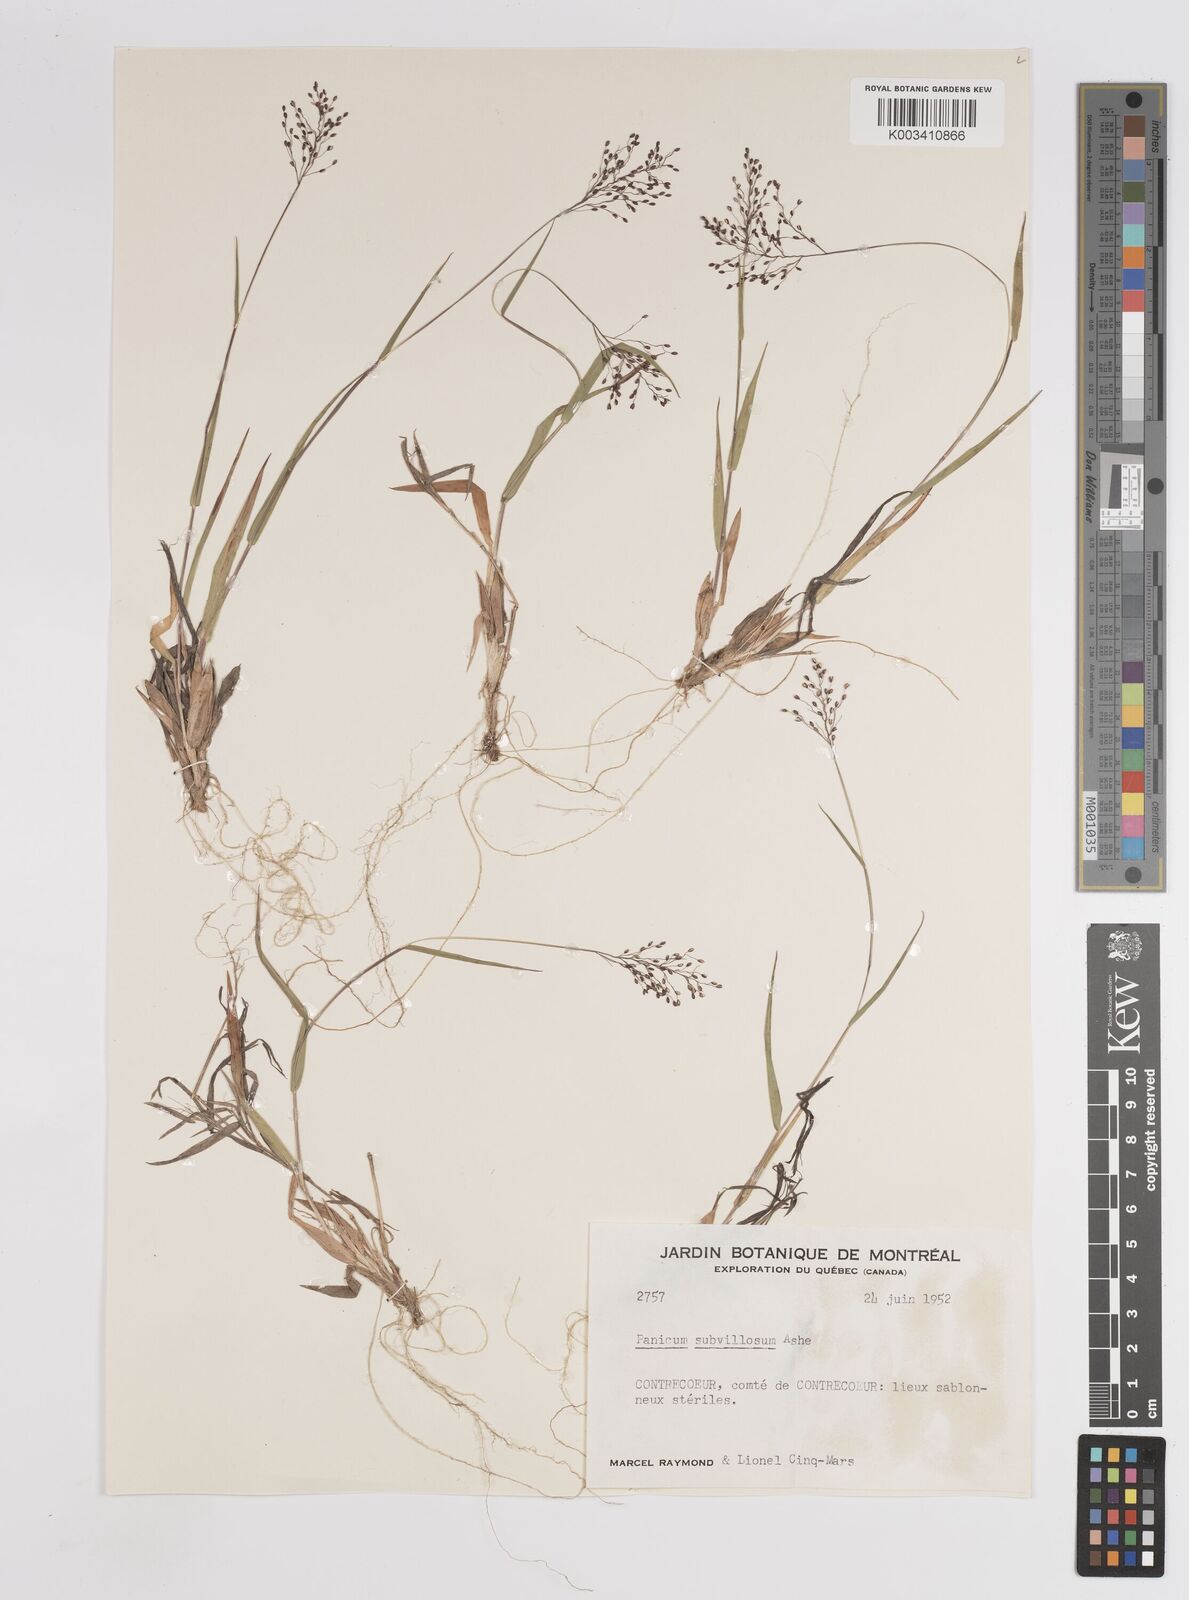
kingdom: Plantae
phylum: Tracheophyta
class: Liliopsida
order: Poales
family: Poaceae
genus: Dichanthelium
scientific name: Dichanthelium subvillosum
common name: Soft-haired panicgrass
